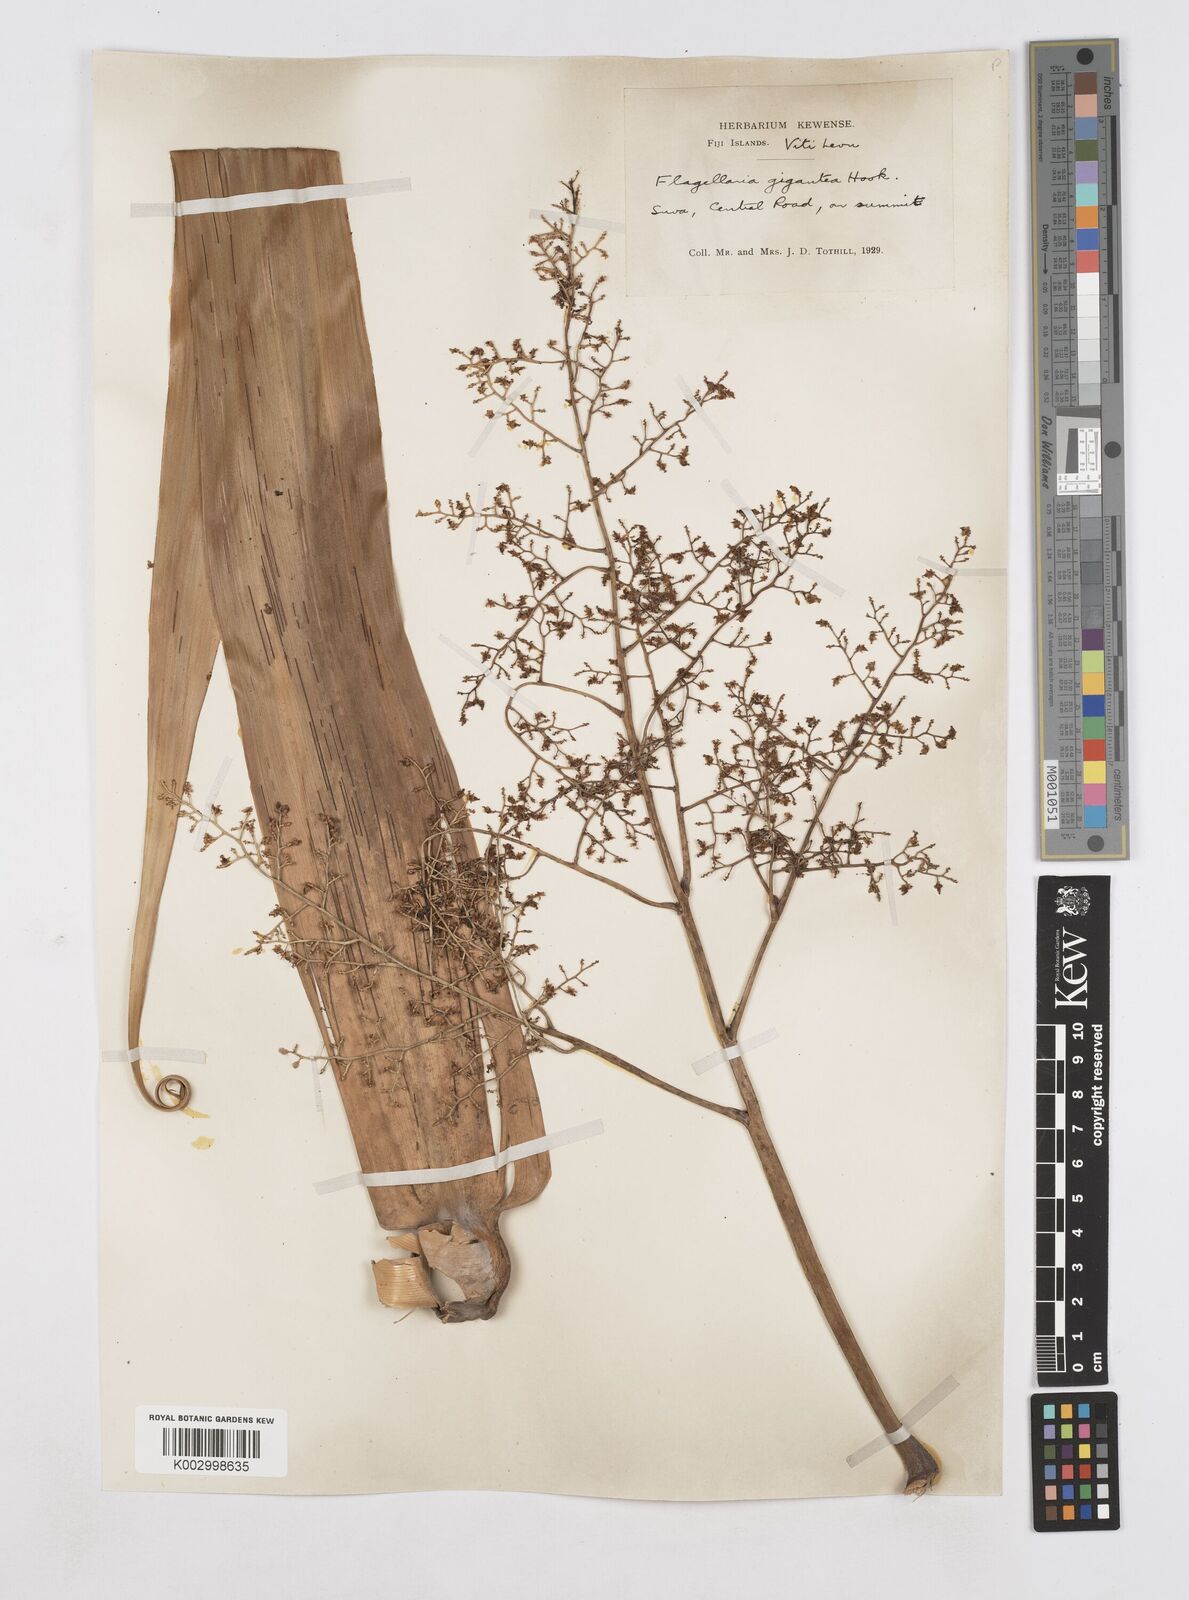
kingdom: Plantae
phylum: Tracheophyta
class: Liliopsida
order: Poales
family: Flagellariaceae
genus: Flagellaria
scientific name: Flagellaria gigantea
